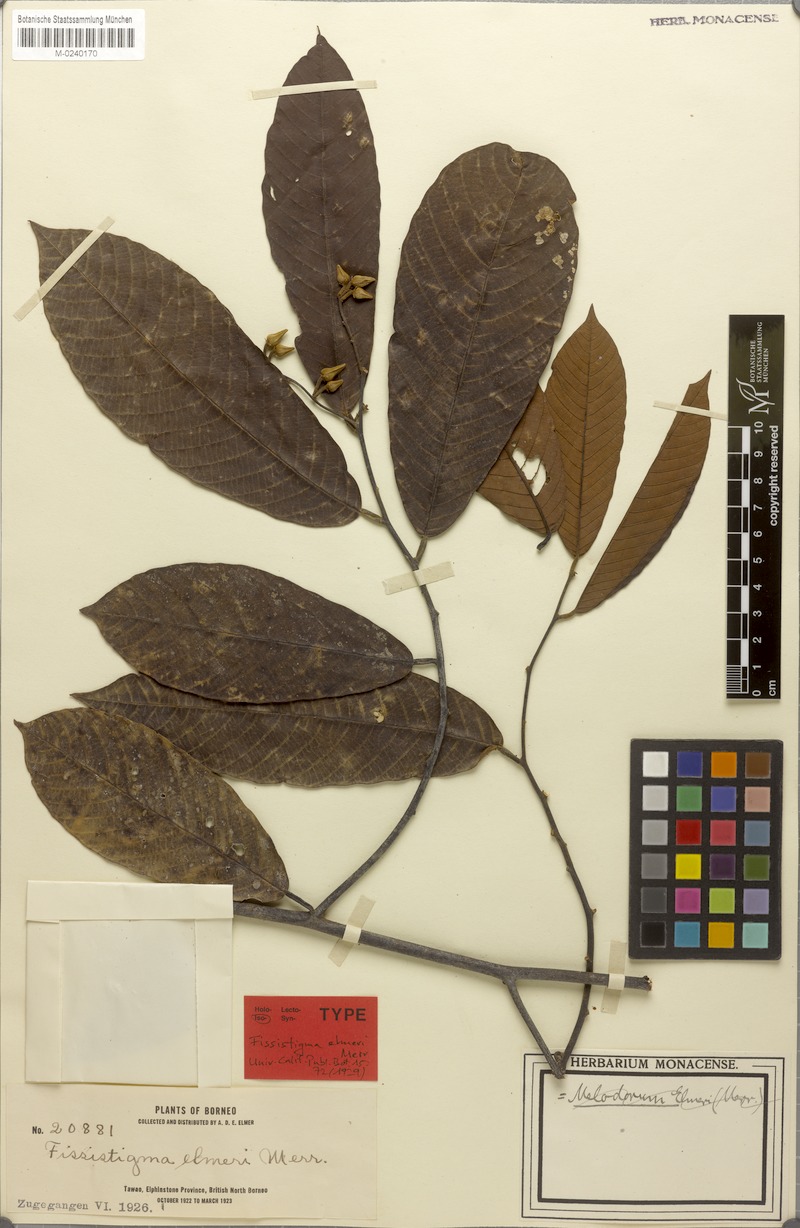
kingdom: Plantae
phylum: Tracheophyta
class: Magnoliopsida
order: Magnoliales
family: Annonaceae
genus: Fissistigma
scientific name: Fissistigma elmeri
